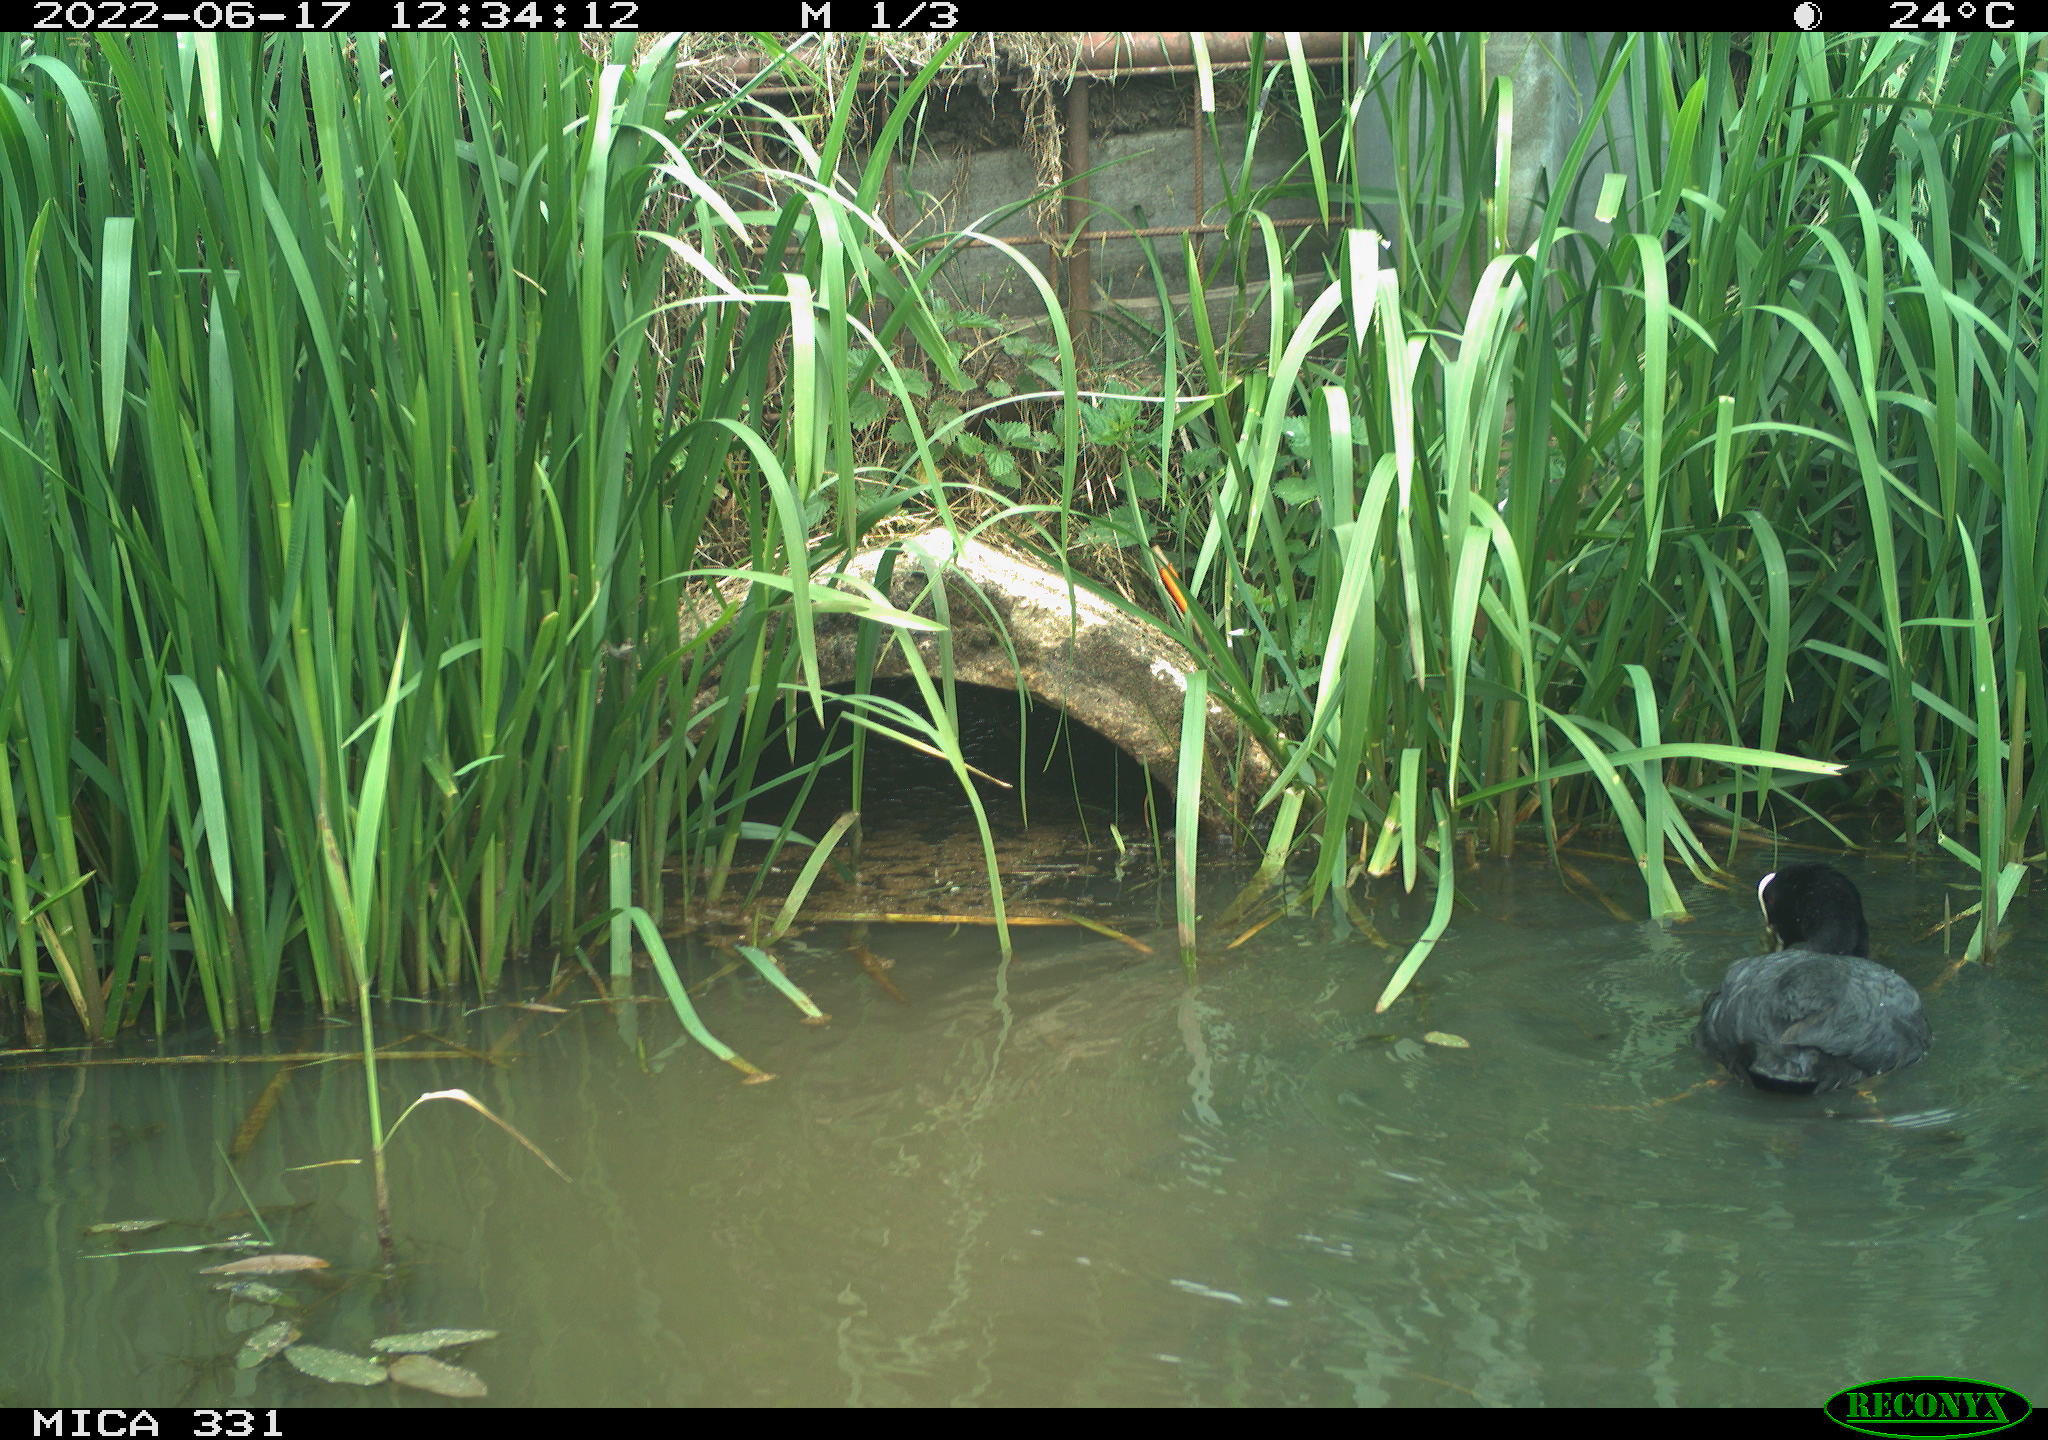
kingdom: Animalia
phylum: Chordata
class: Aves
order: Gruiformes
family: Rallidae
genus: Fulica
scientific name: Fulica atra
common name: Eurasian coot
